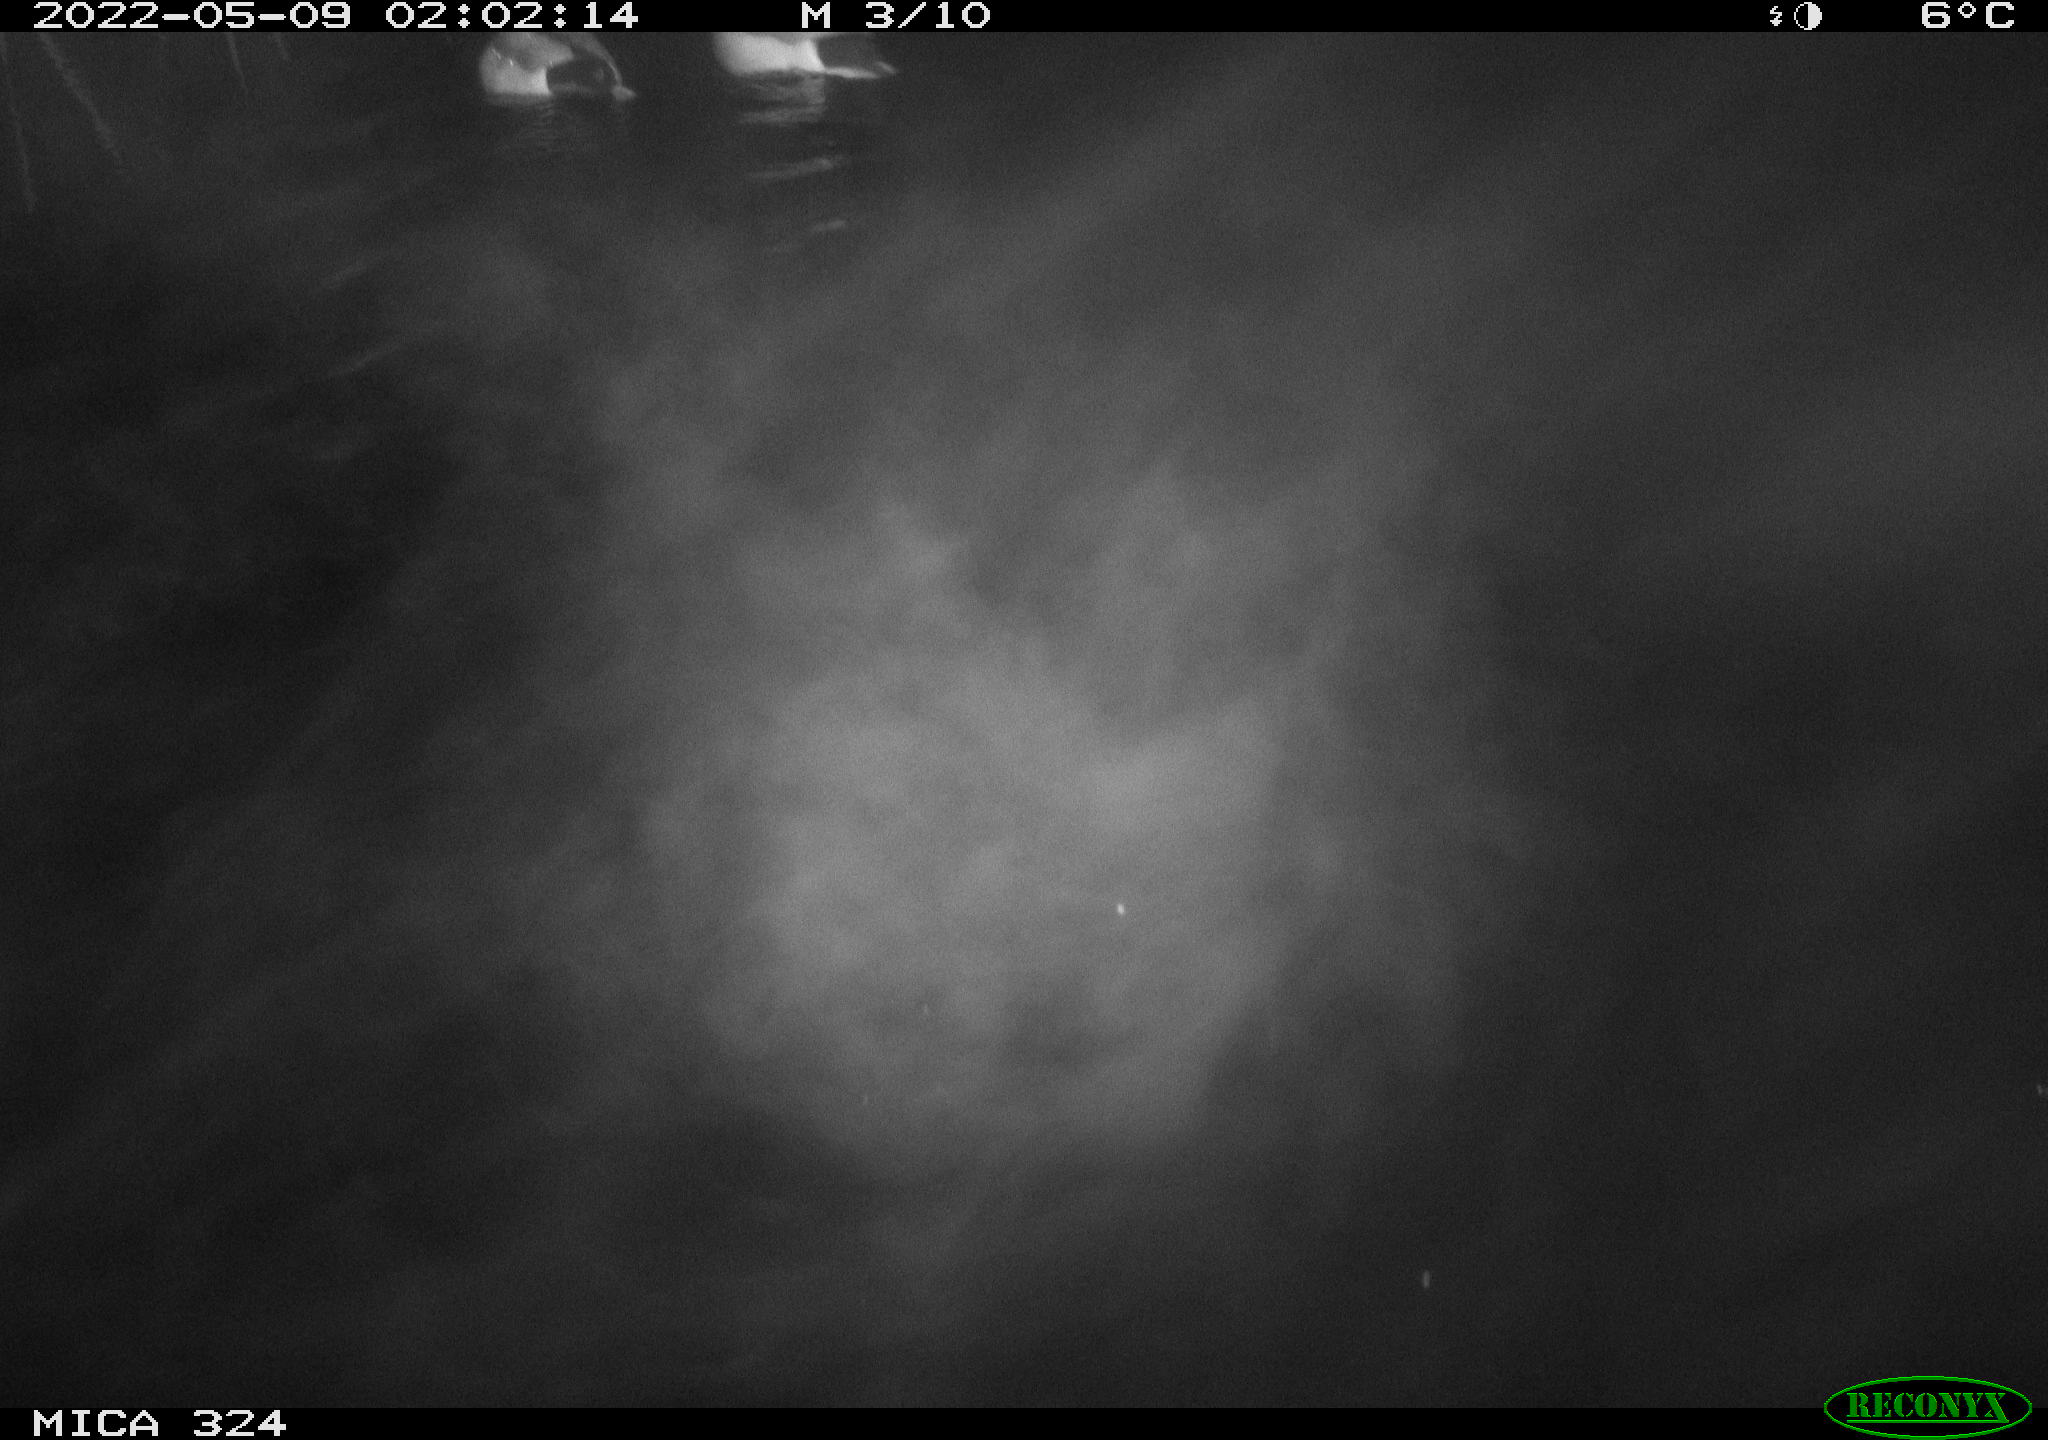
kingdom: Animalia
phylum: Chordata
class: Aves
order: Anseriformes
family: Anatidae
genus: Anas
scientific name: Anas platyrhynchos
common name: Mallard
